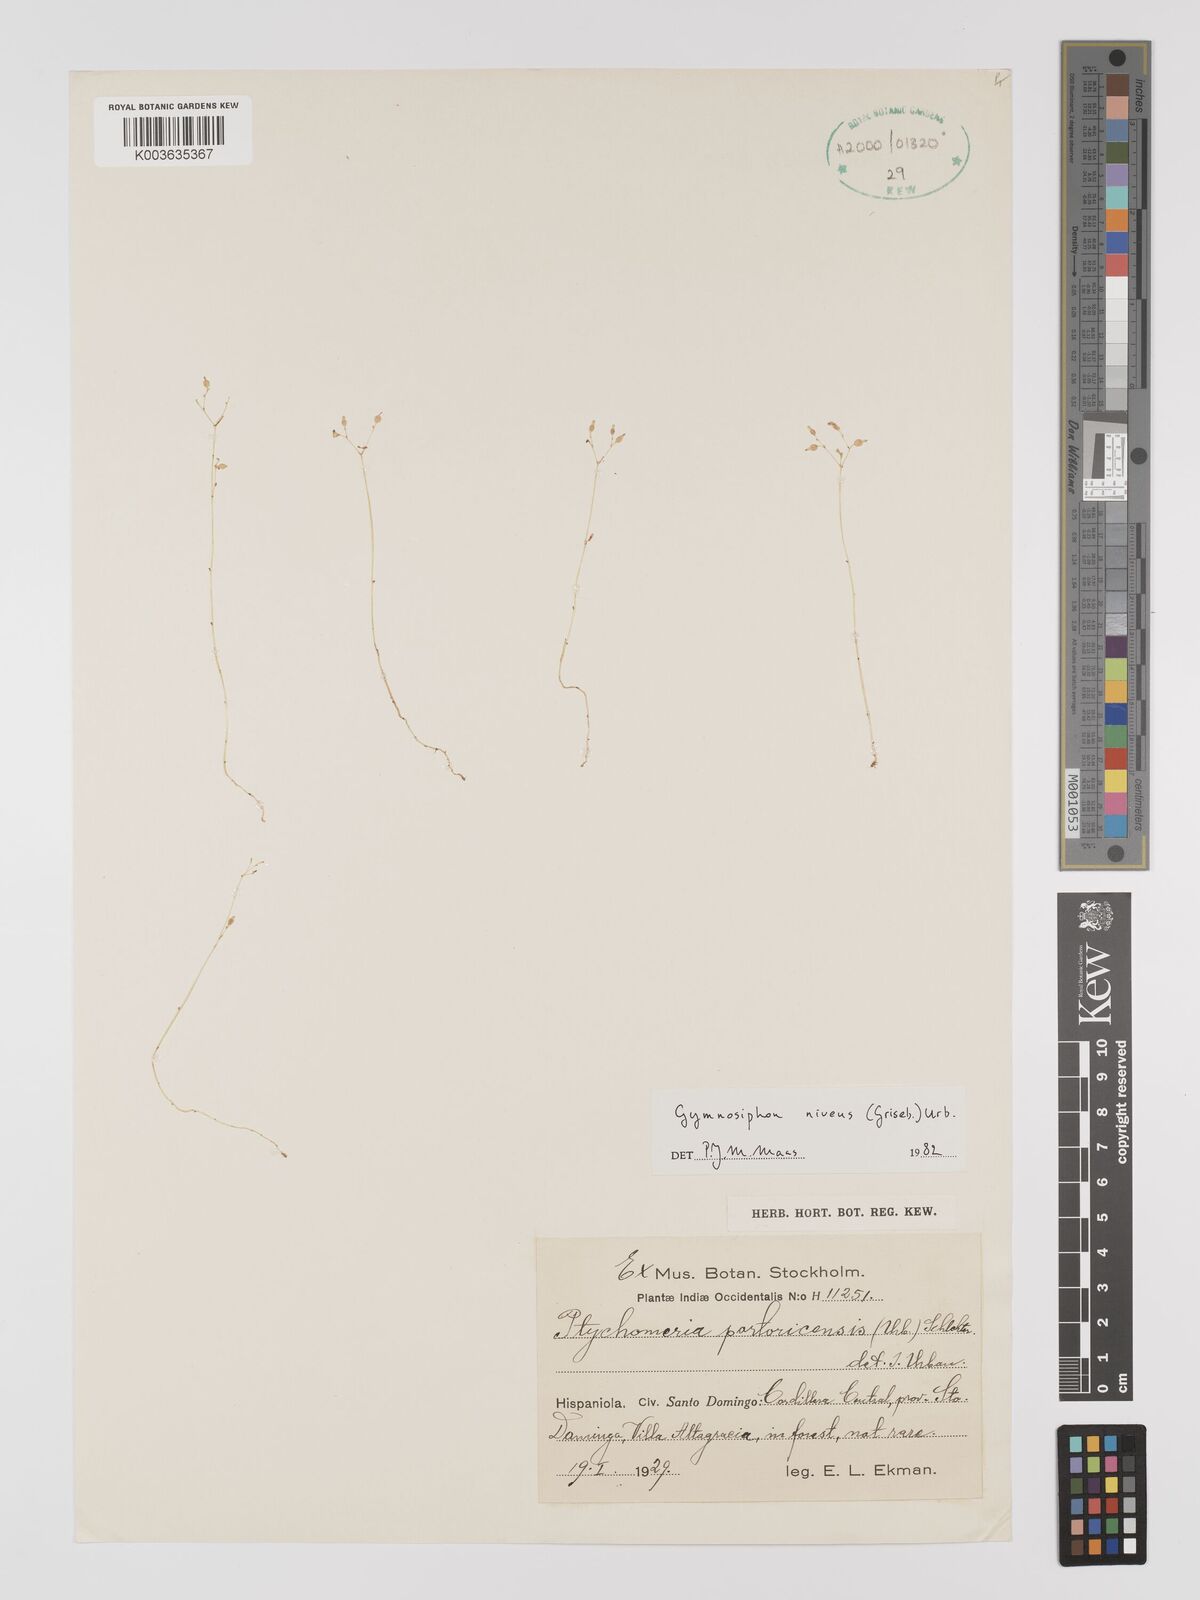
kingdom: Plantae
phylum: Tracheophyta
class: Liliopsida
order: Dioscoreales
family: Burmanniaceae
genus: Gymnosiphon
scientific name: Gymnosiphon niveus
